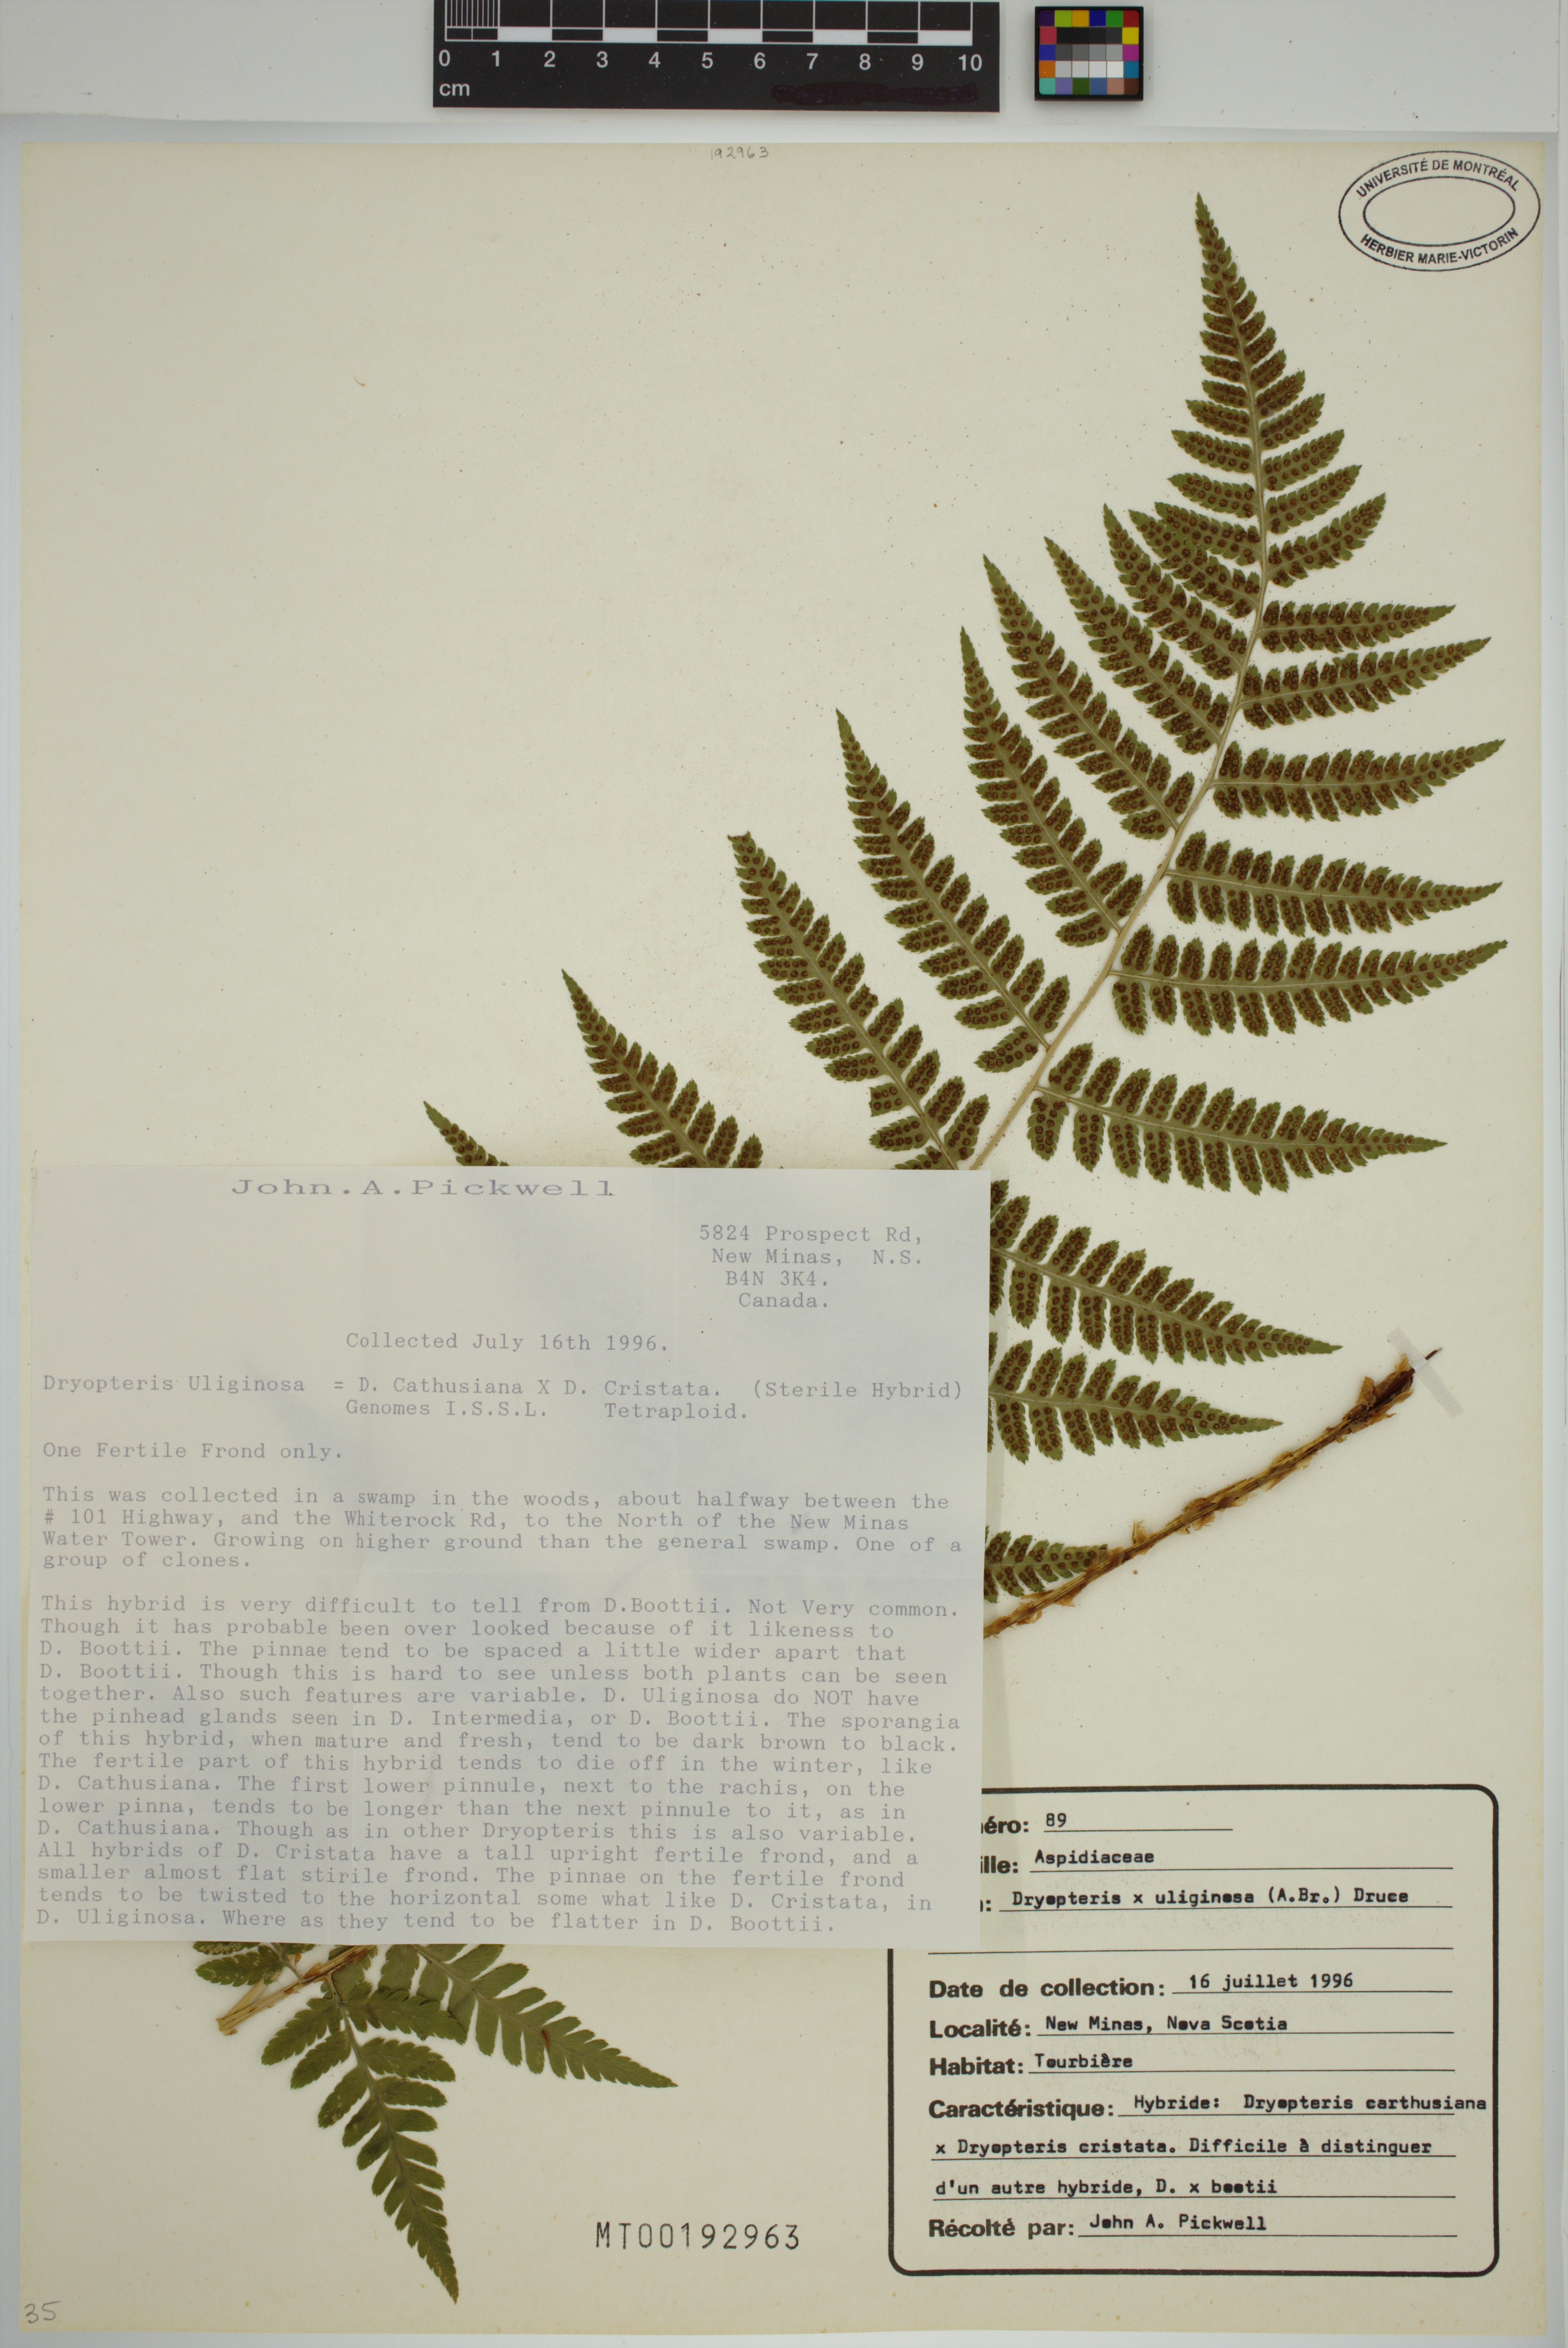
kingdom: Plantae
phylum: Tracheophyta
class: Polypodiopsida
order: Polypodiales
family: Dryopteridaceae
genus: Dryopteris
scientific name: Dryopteris
